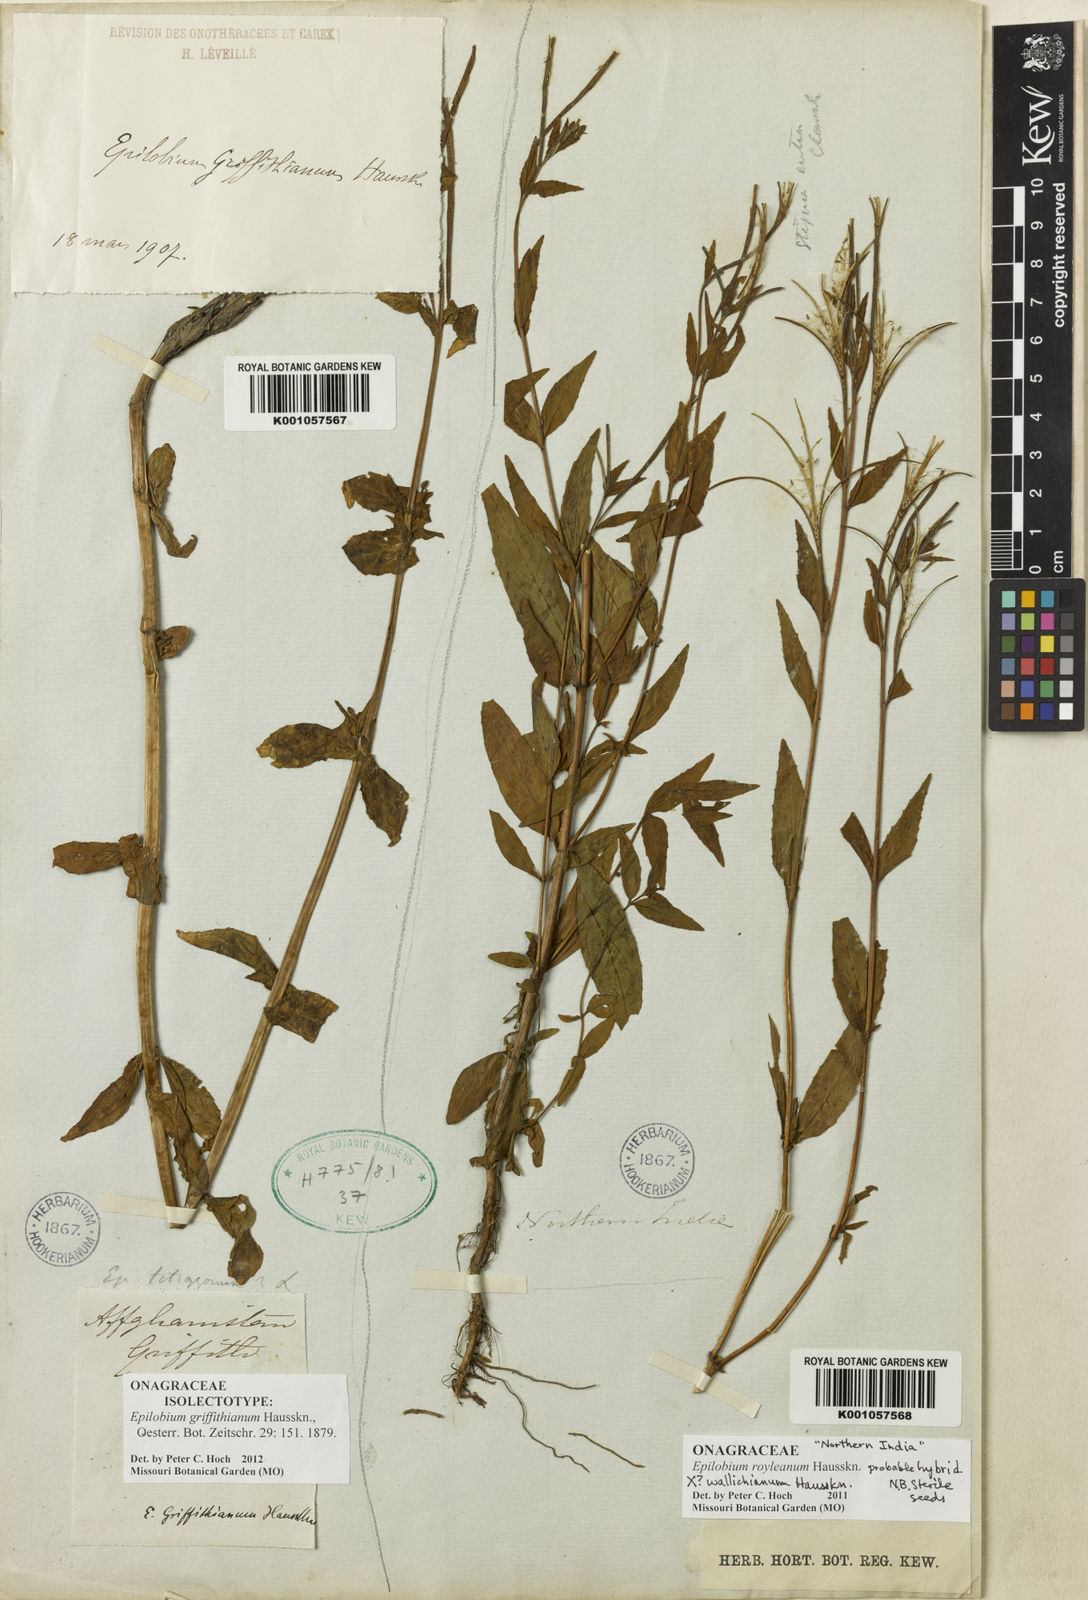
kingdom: Plantae
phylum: Tracheophyta
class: Magnoliopsida
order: Myrtales
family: Onagraceae
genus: Epilobium
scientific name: Epilobium griffithianum
